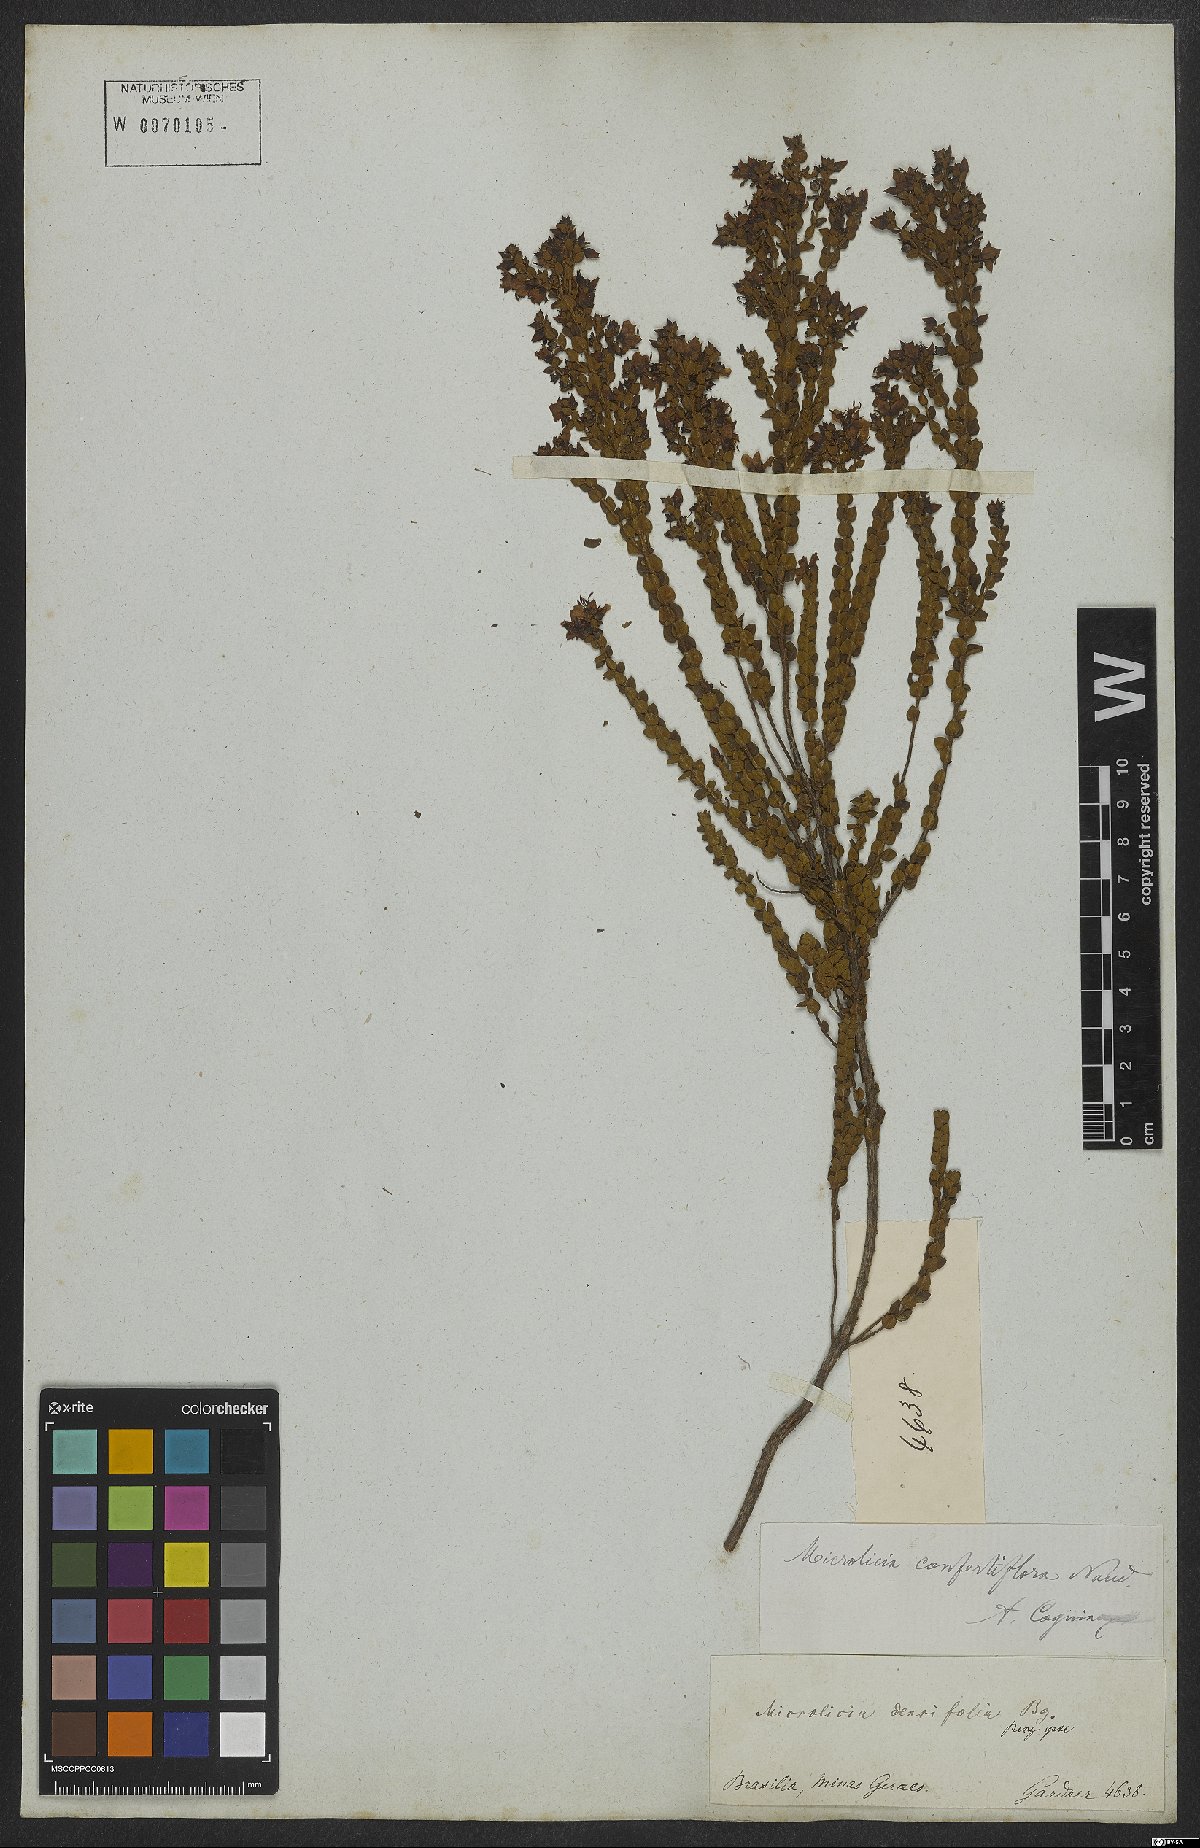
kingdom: Plantae
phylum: Tracheophyta
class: Magnoliopsida
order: Myrtales
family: Melastomataceae
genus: Microlicia
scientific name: Microlicia confertiflora
